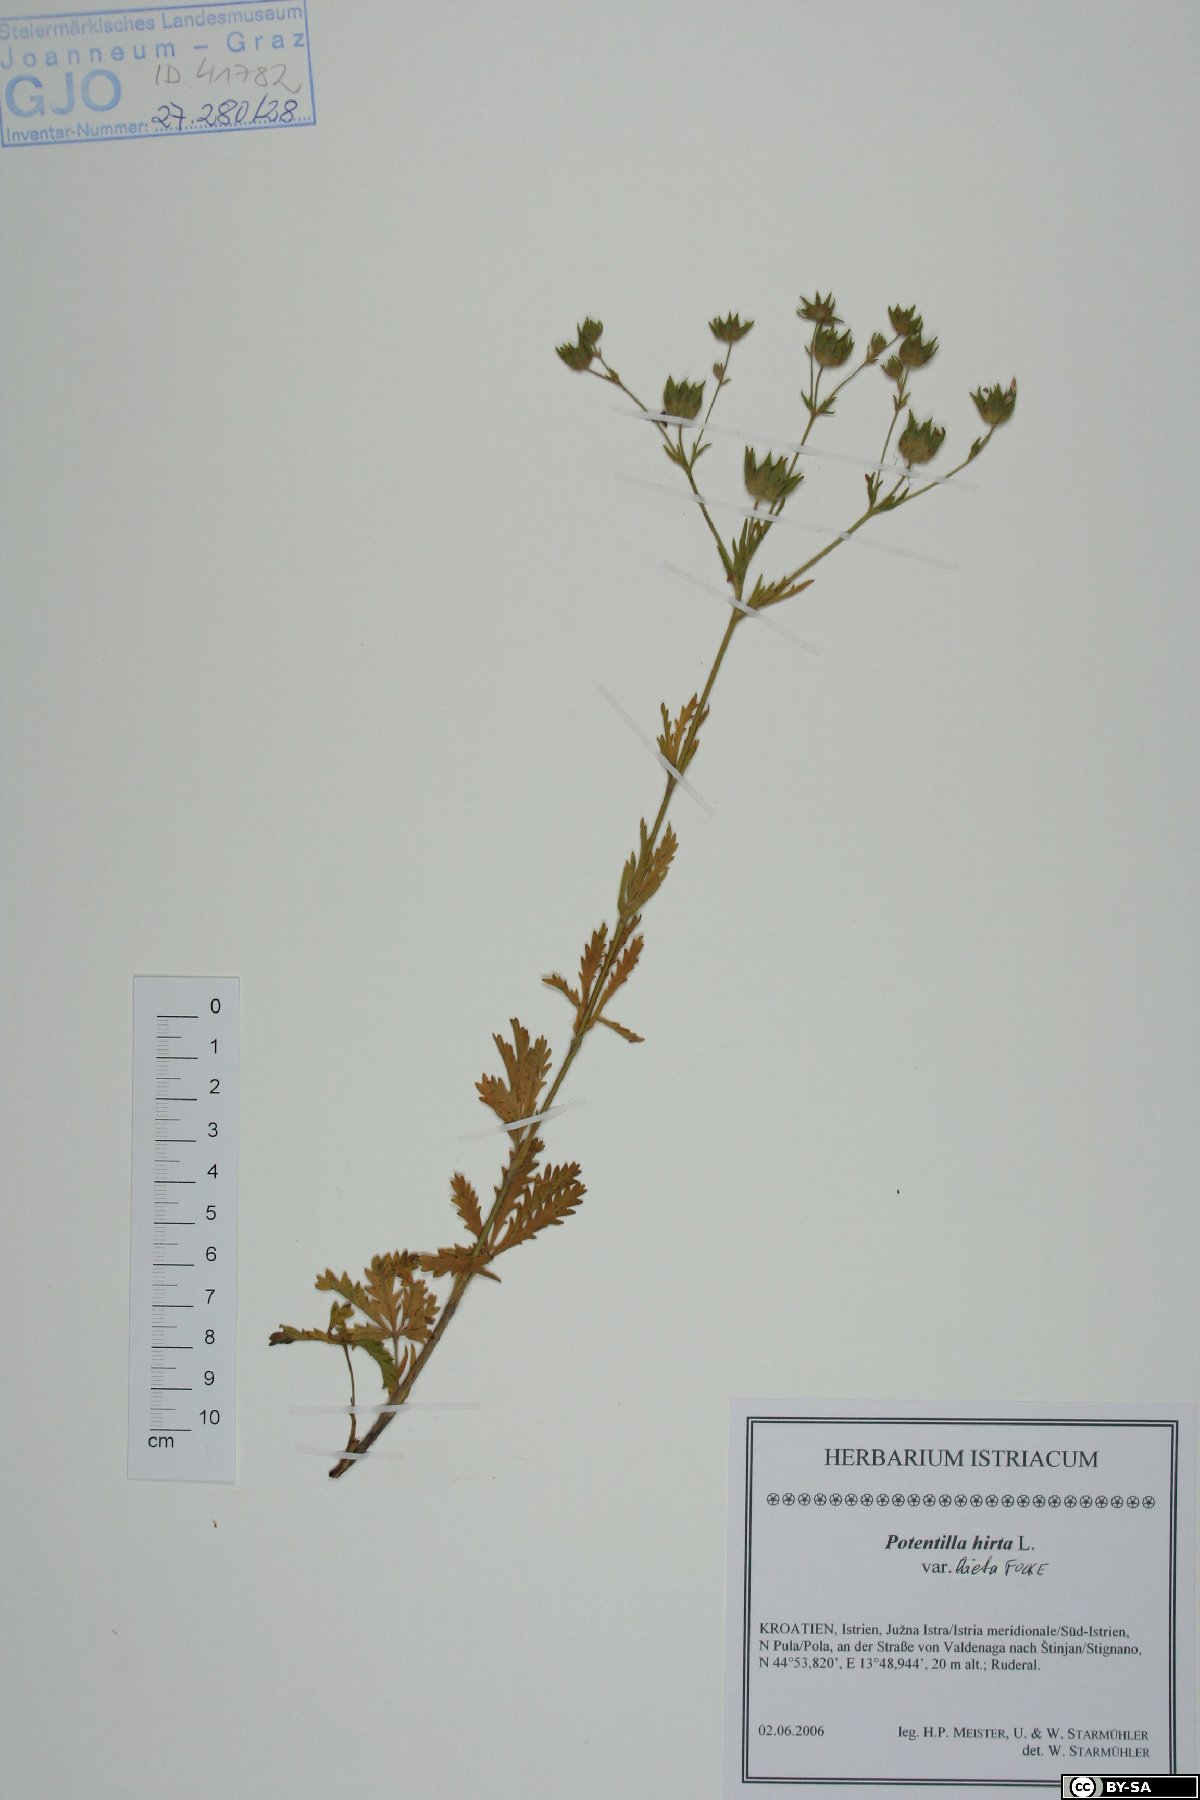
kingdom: Plantae
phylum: Tracheophyta
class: Magnoliopsida
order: Rosales
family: Rosaceae
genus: Potentilla
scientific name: Potentilla hirta
